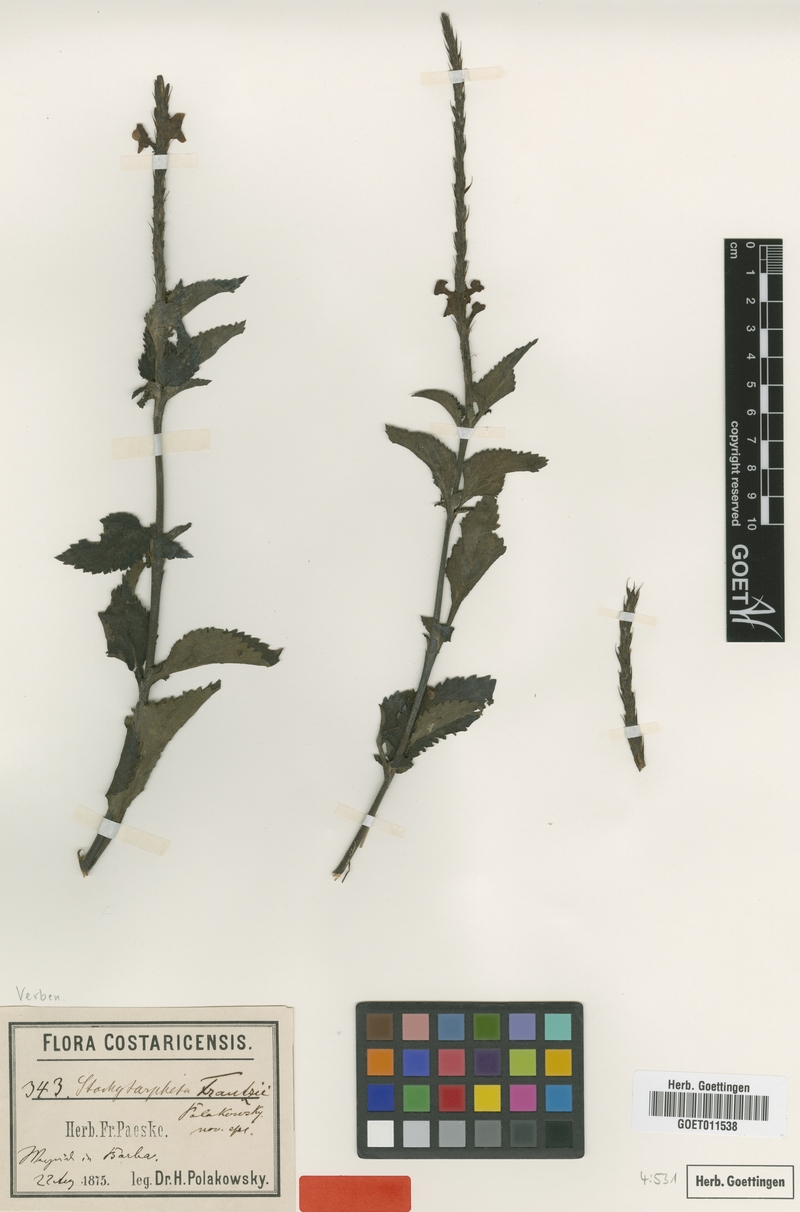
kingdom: Plantae
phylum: Tracheophyta
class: Magnoliopsida
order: Lamiales
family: Verbenaceae
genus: Stachytarpheta
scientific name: Stachytarpheta frantzii
